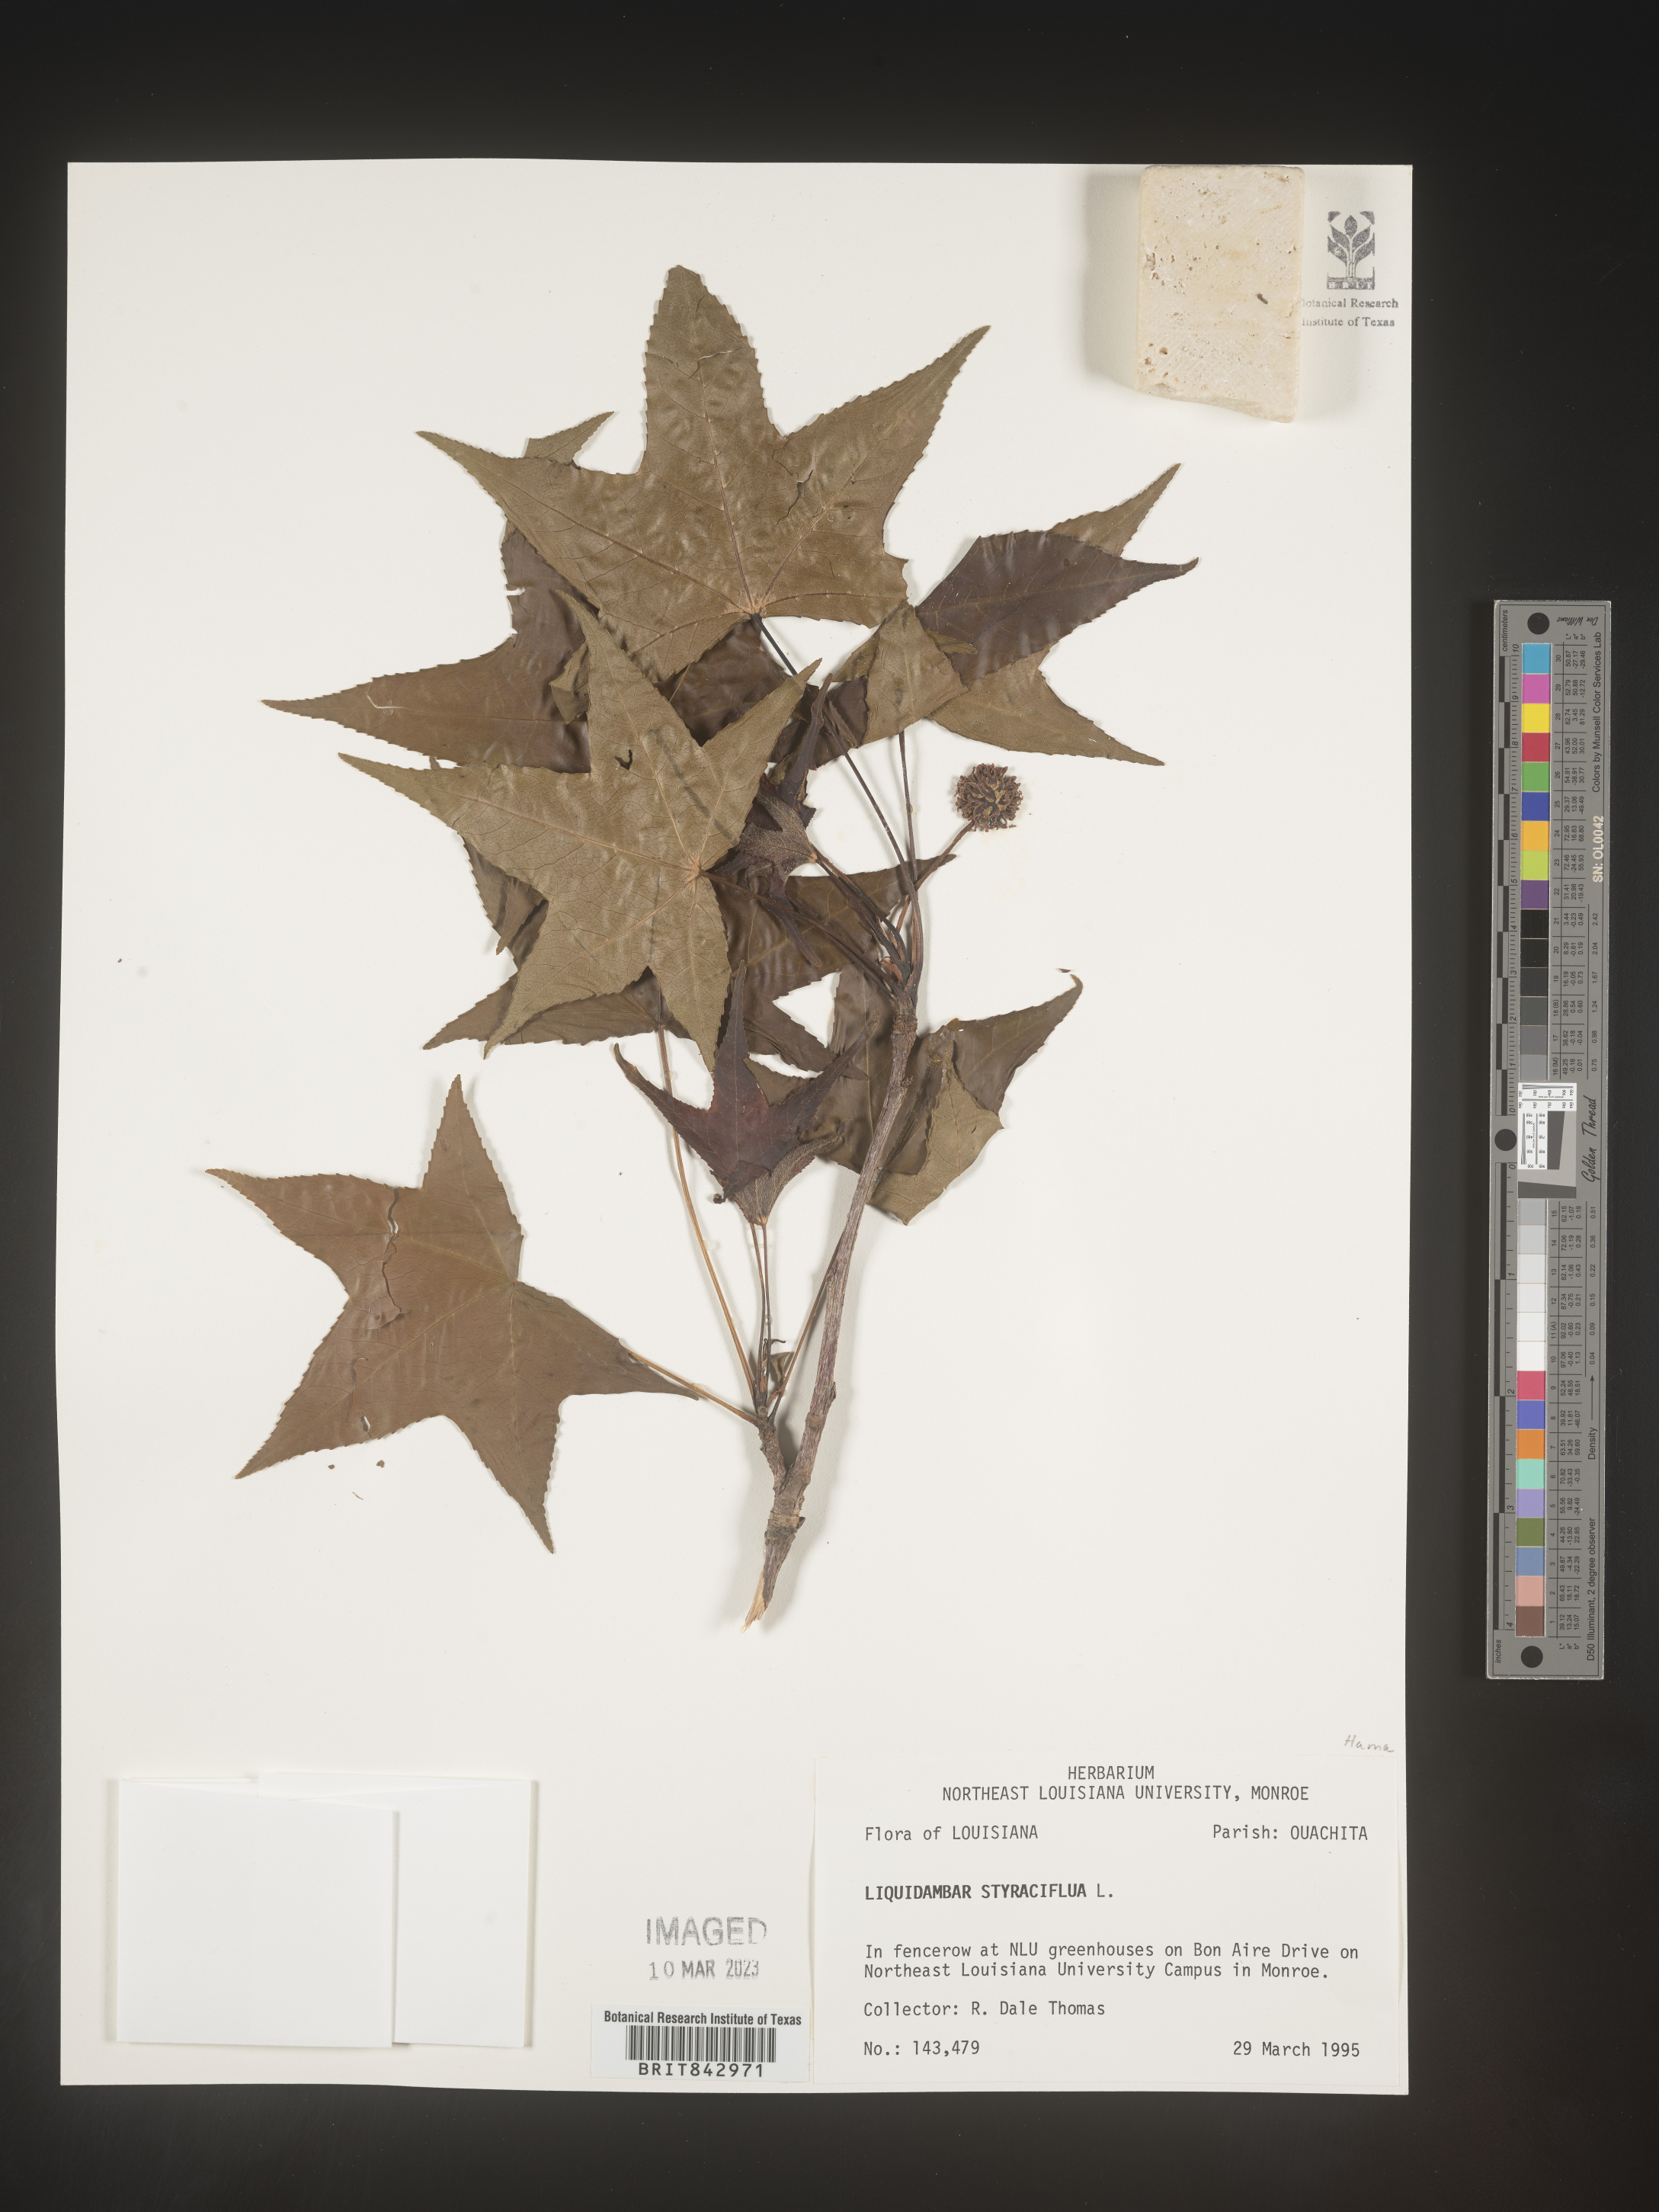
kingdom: Plantae
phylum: Tracheophyta
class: Magnoliopsida
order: Saxifragales
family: Altingiaceae
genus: Liquidambar
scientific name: Liquidambar styraciflua
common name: Sweet gum
